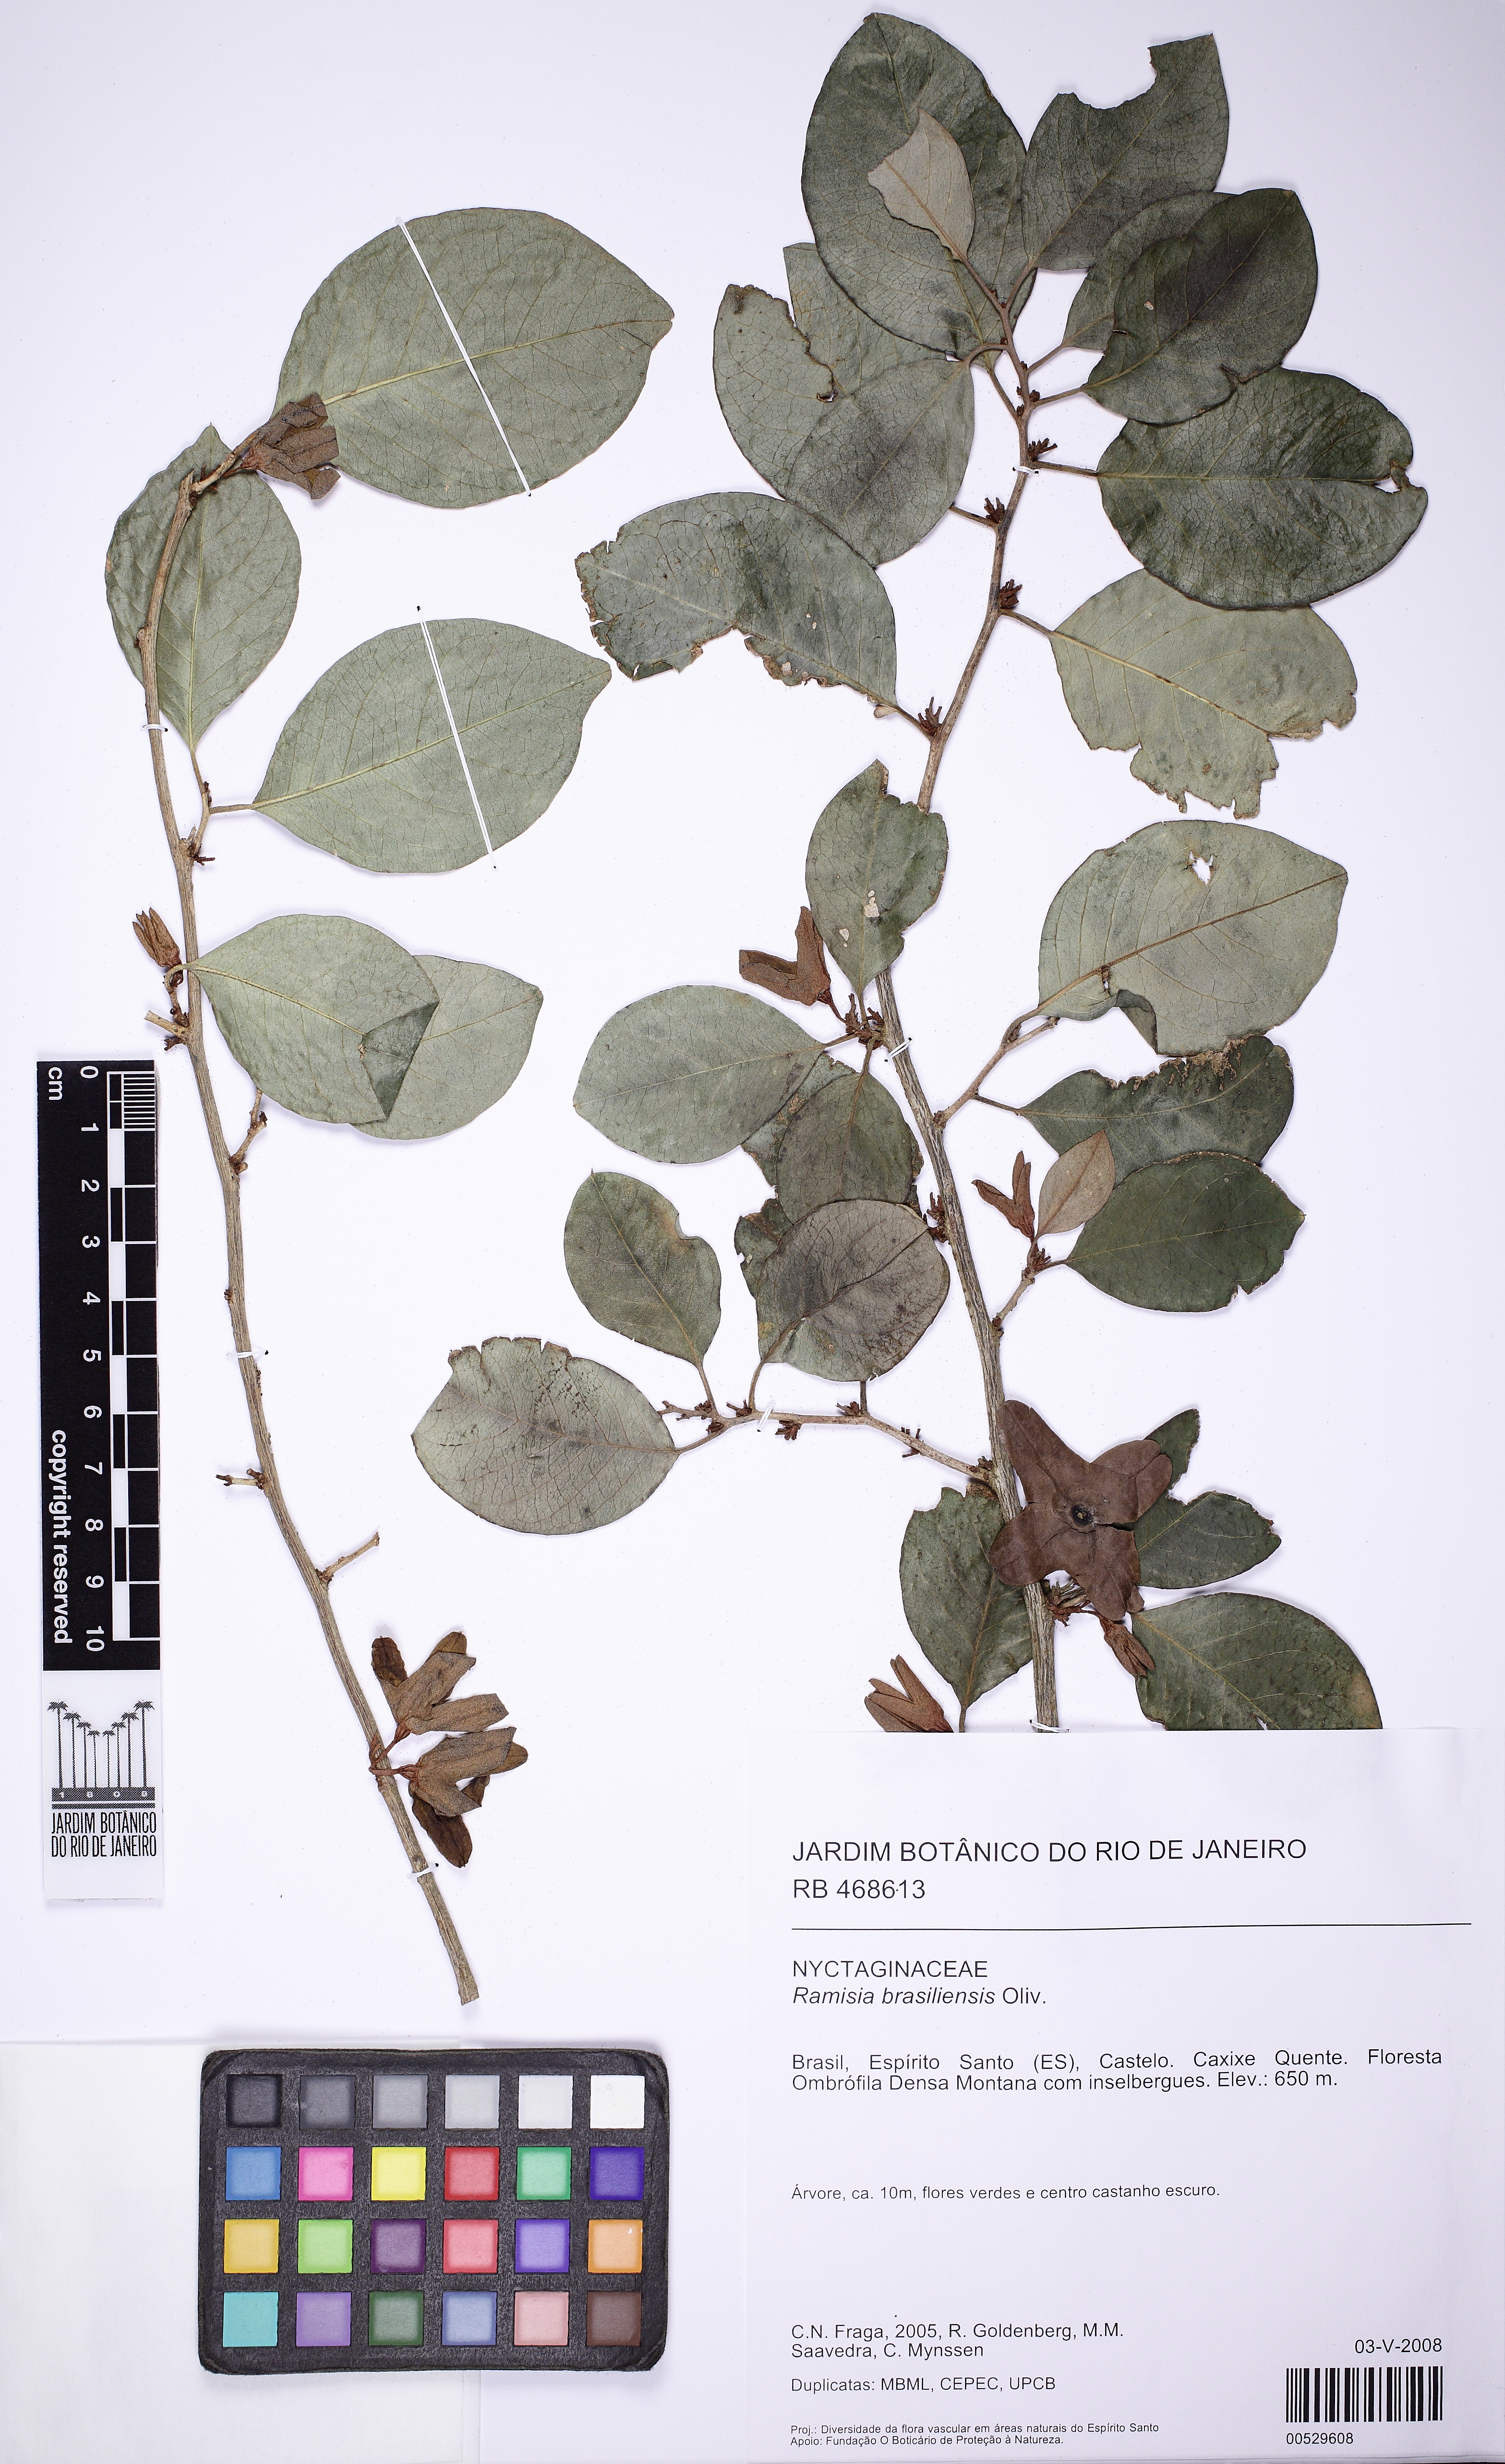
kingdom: Plantae
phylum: Tracheophyta
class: Magnoliopsida
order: Caryophyllales
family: Nyctaginaceae
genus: Ramisia
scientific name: Ramisia brasiliensis
